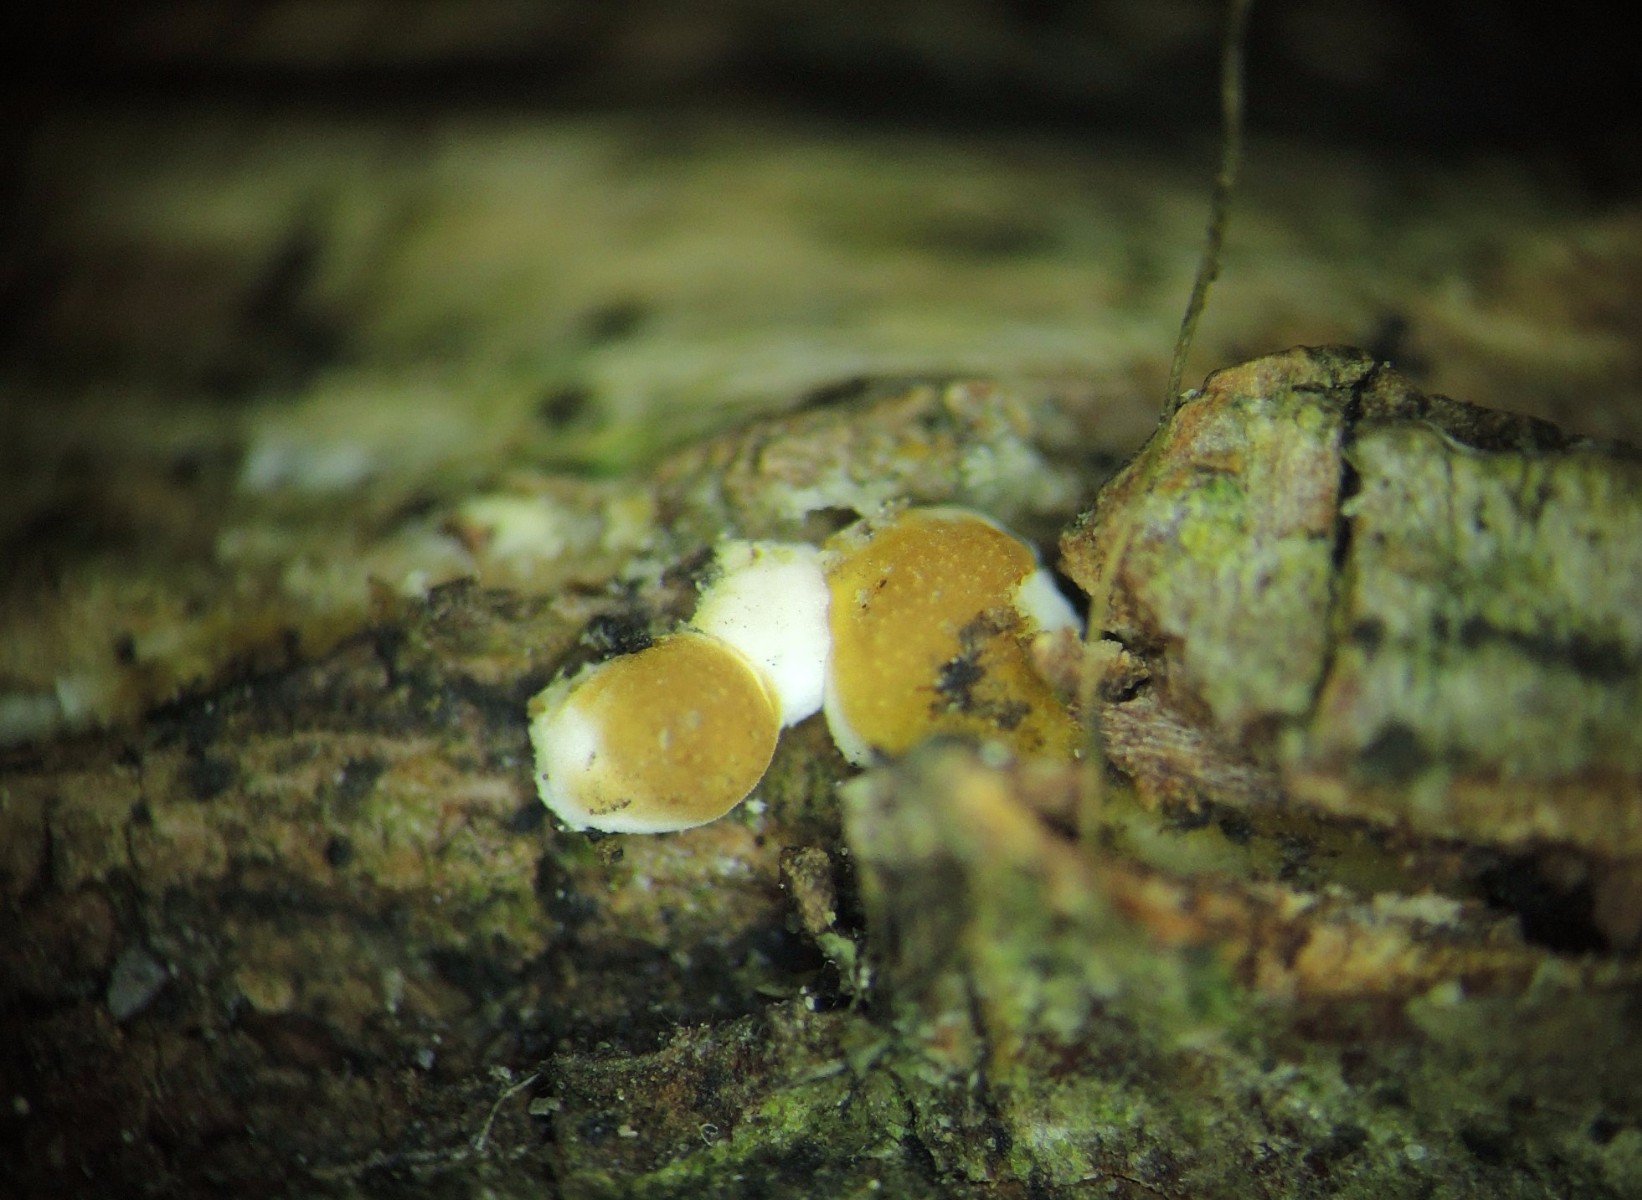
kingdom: Fungi
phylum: Ascomycota
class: Sordariomycetes
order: Hypocreales
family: Hypocreaceae
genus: Trichoderma
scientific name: Trichoderma
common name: kødkerne
